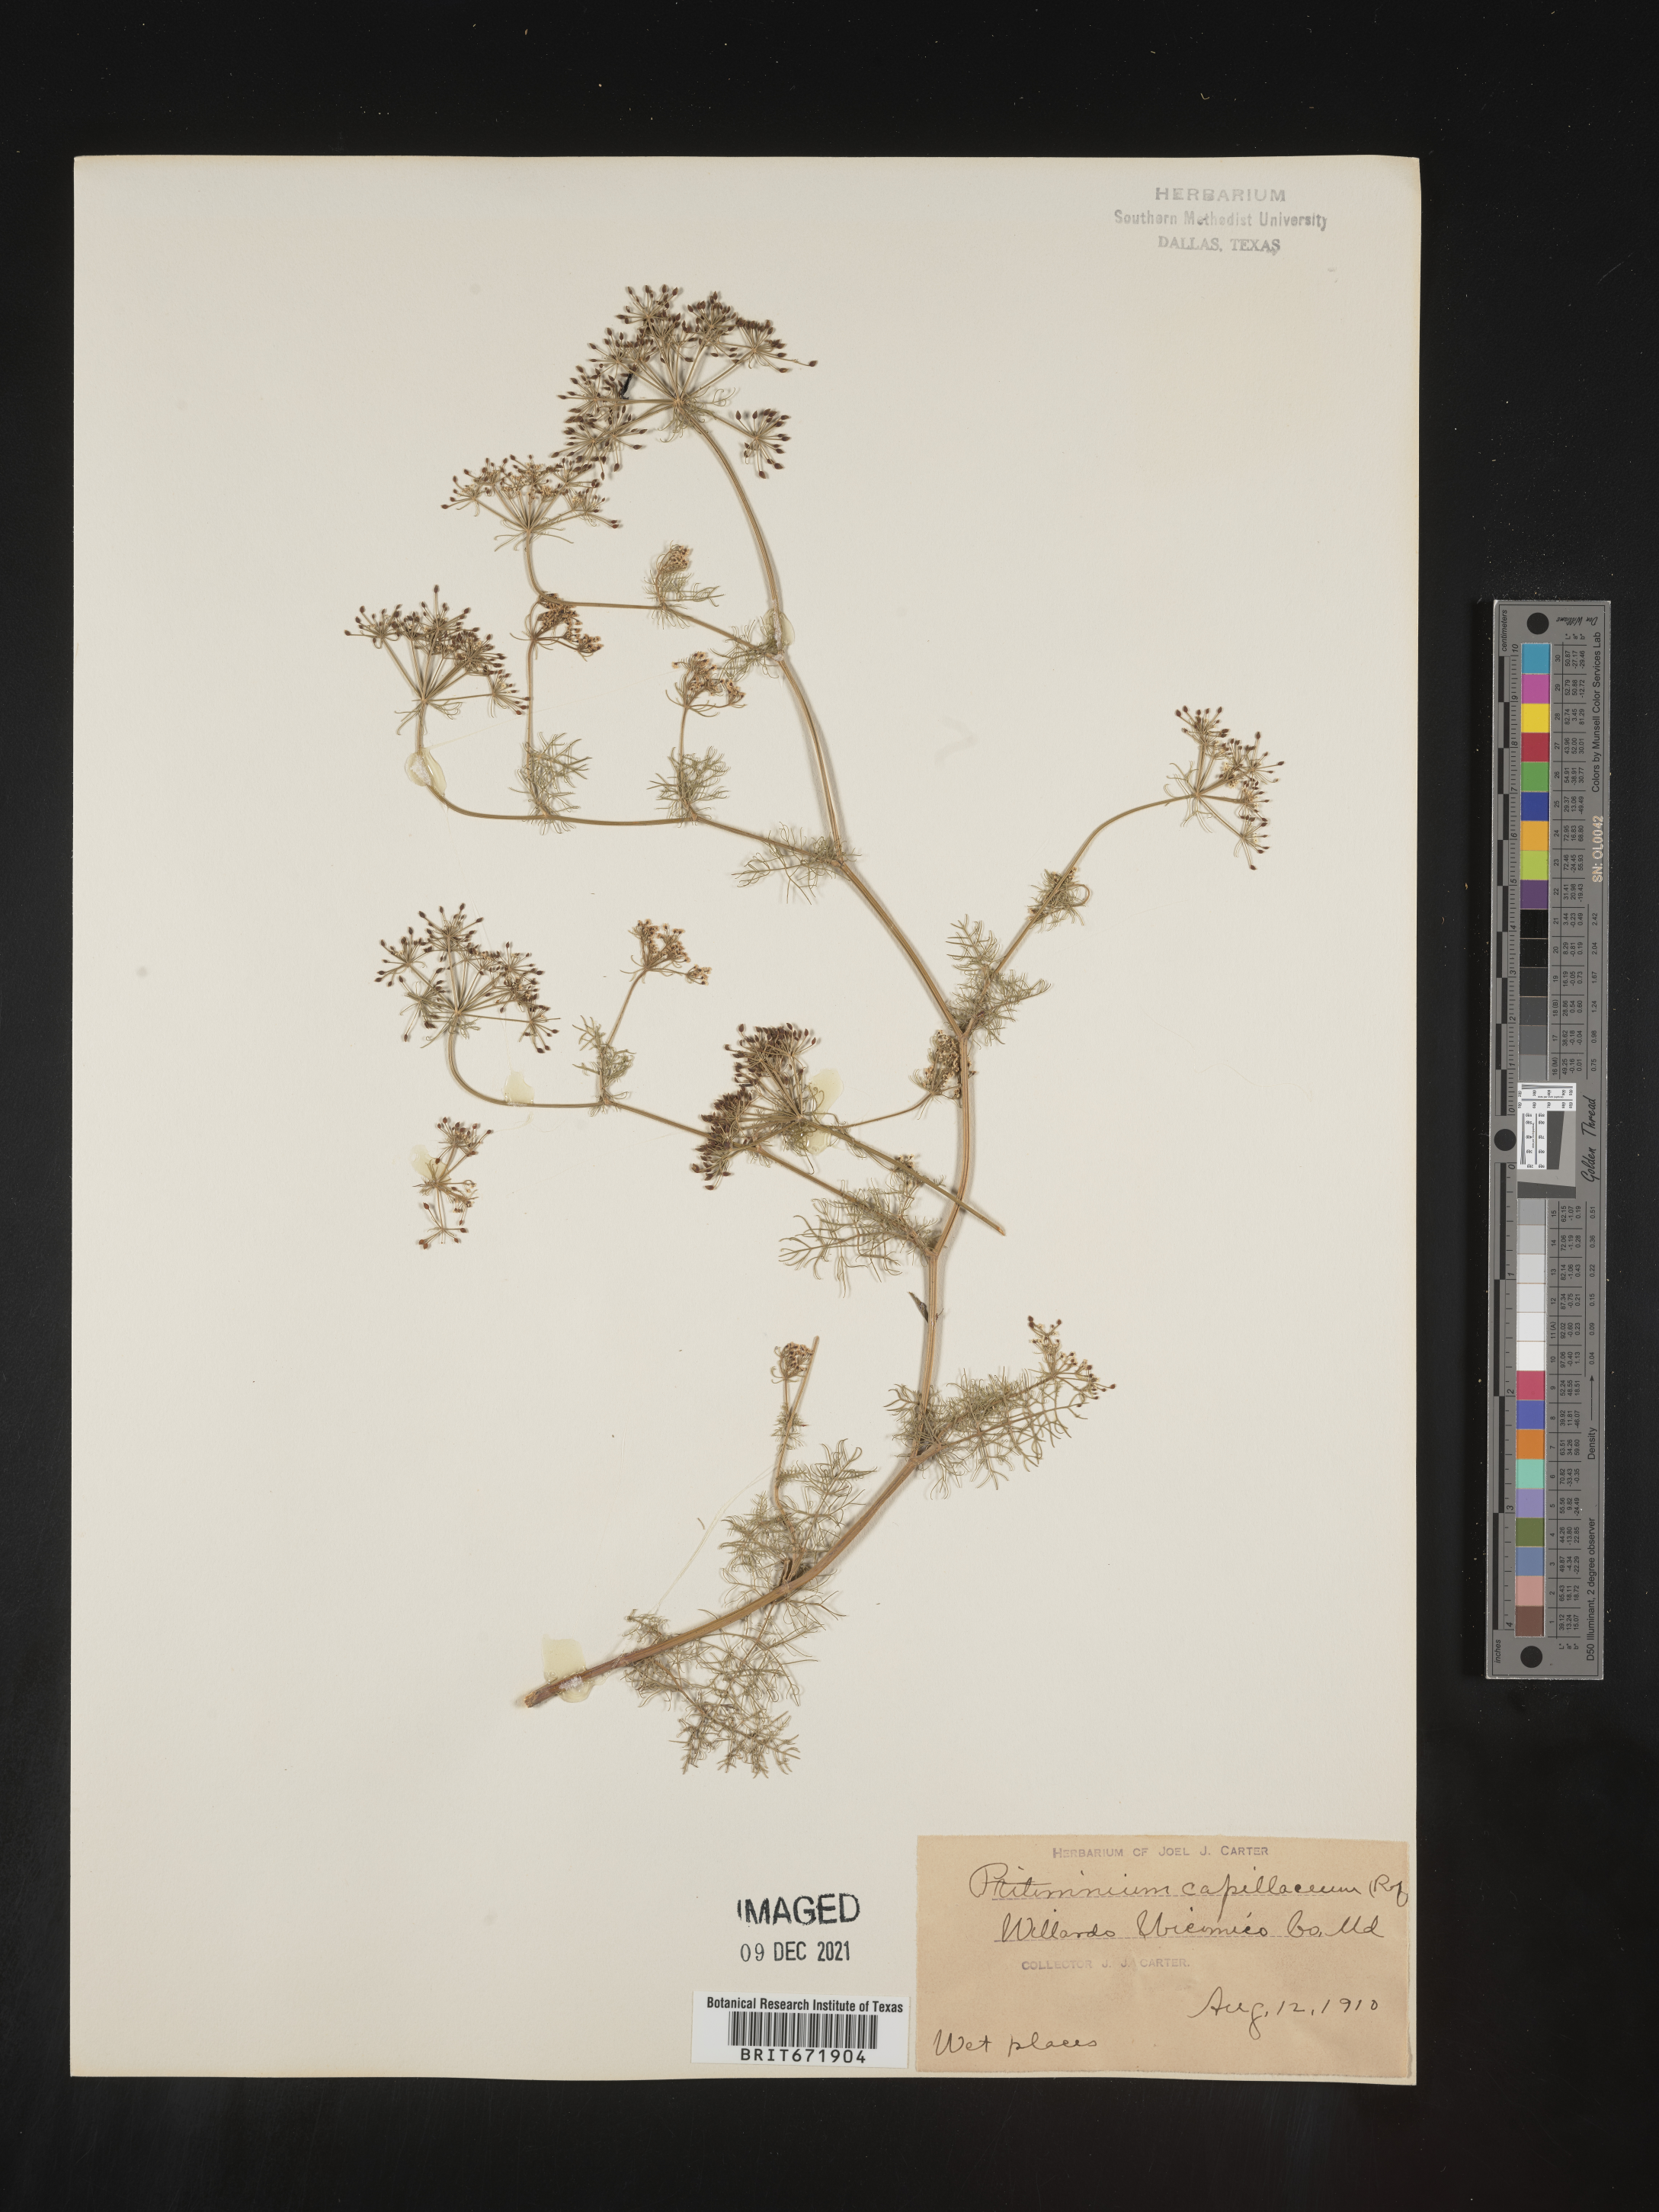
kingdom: Plantae
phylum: Tracheophyta
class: Magnoliopsida
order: Apiales
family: Apiaceae
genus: Ptilimnium
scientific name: Ptilimnium capillaceum
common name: Herbwilliam
